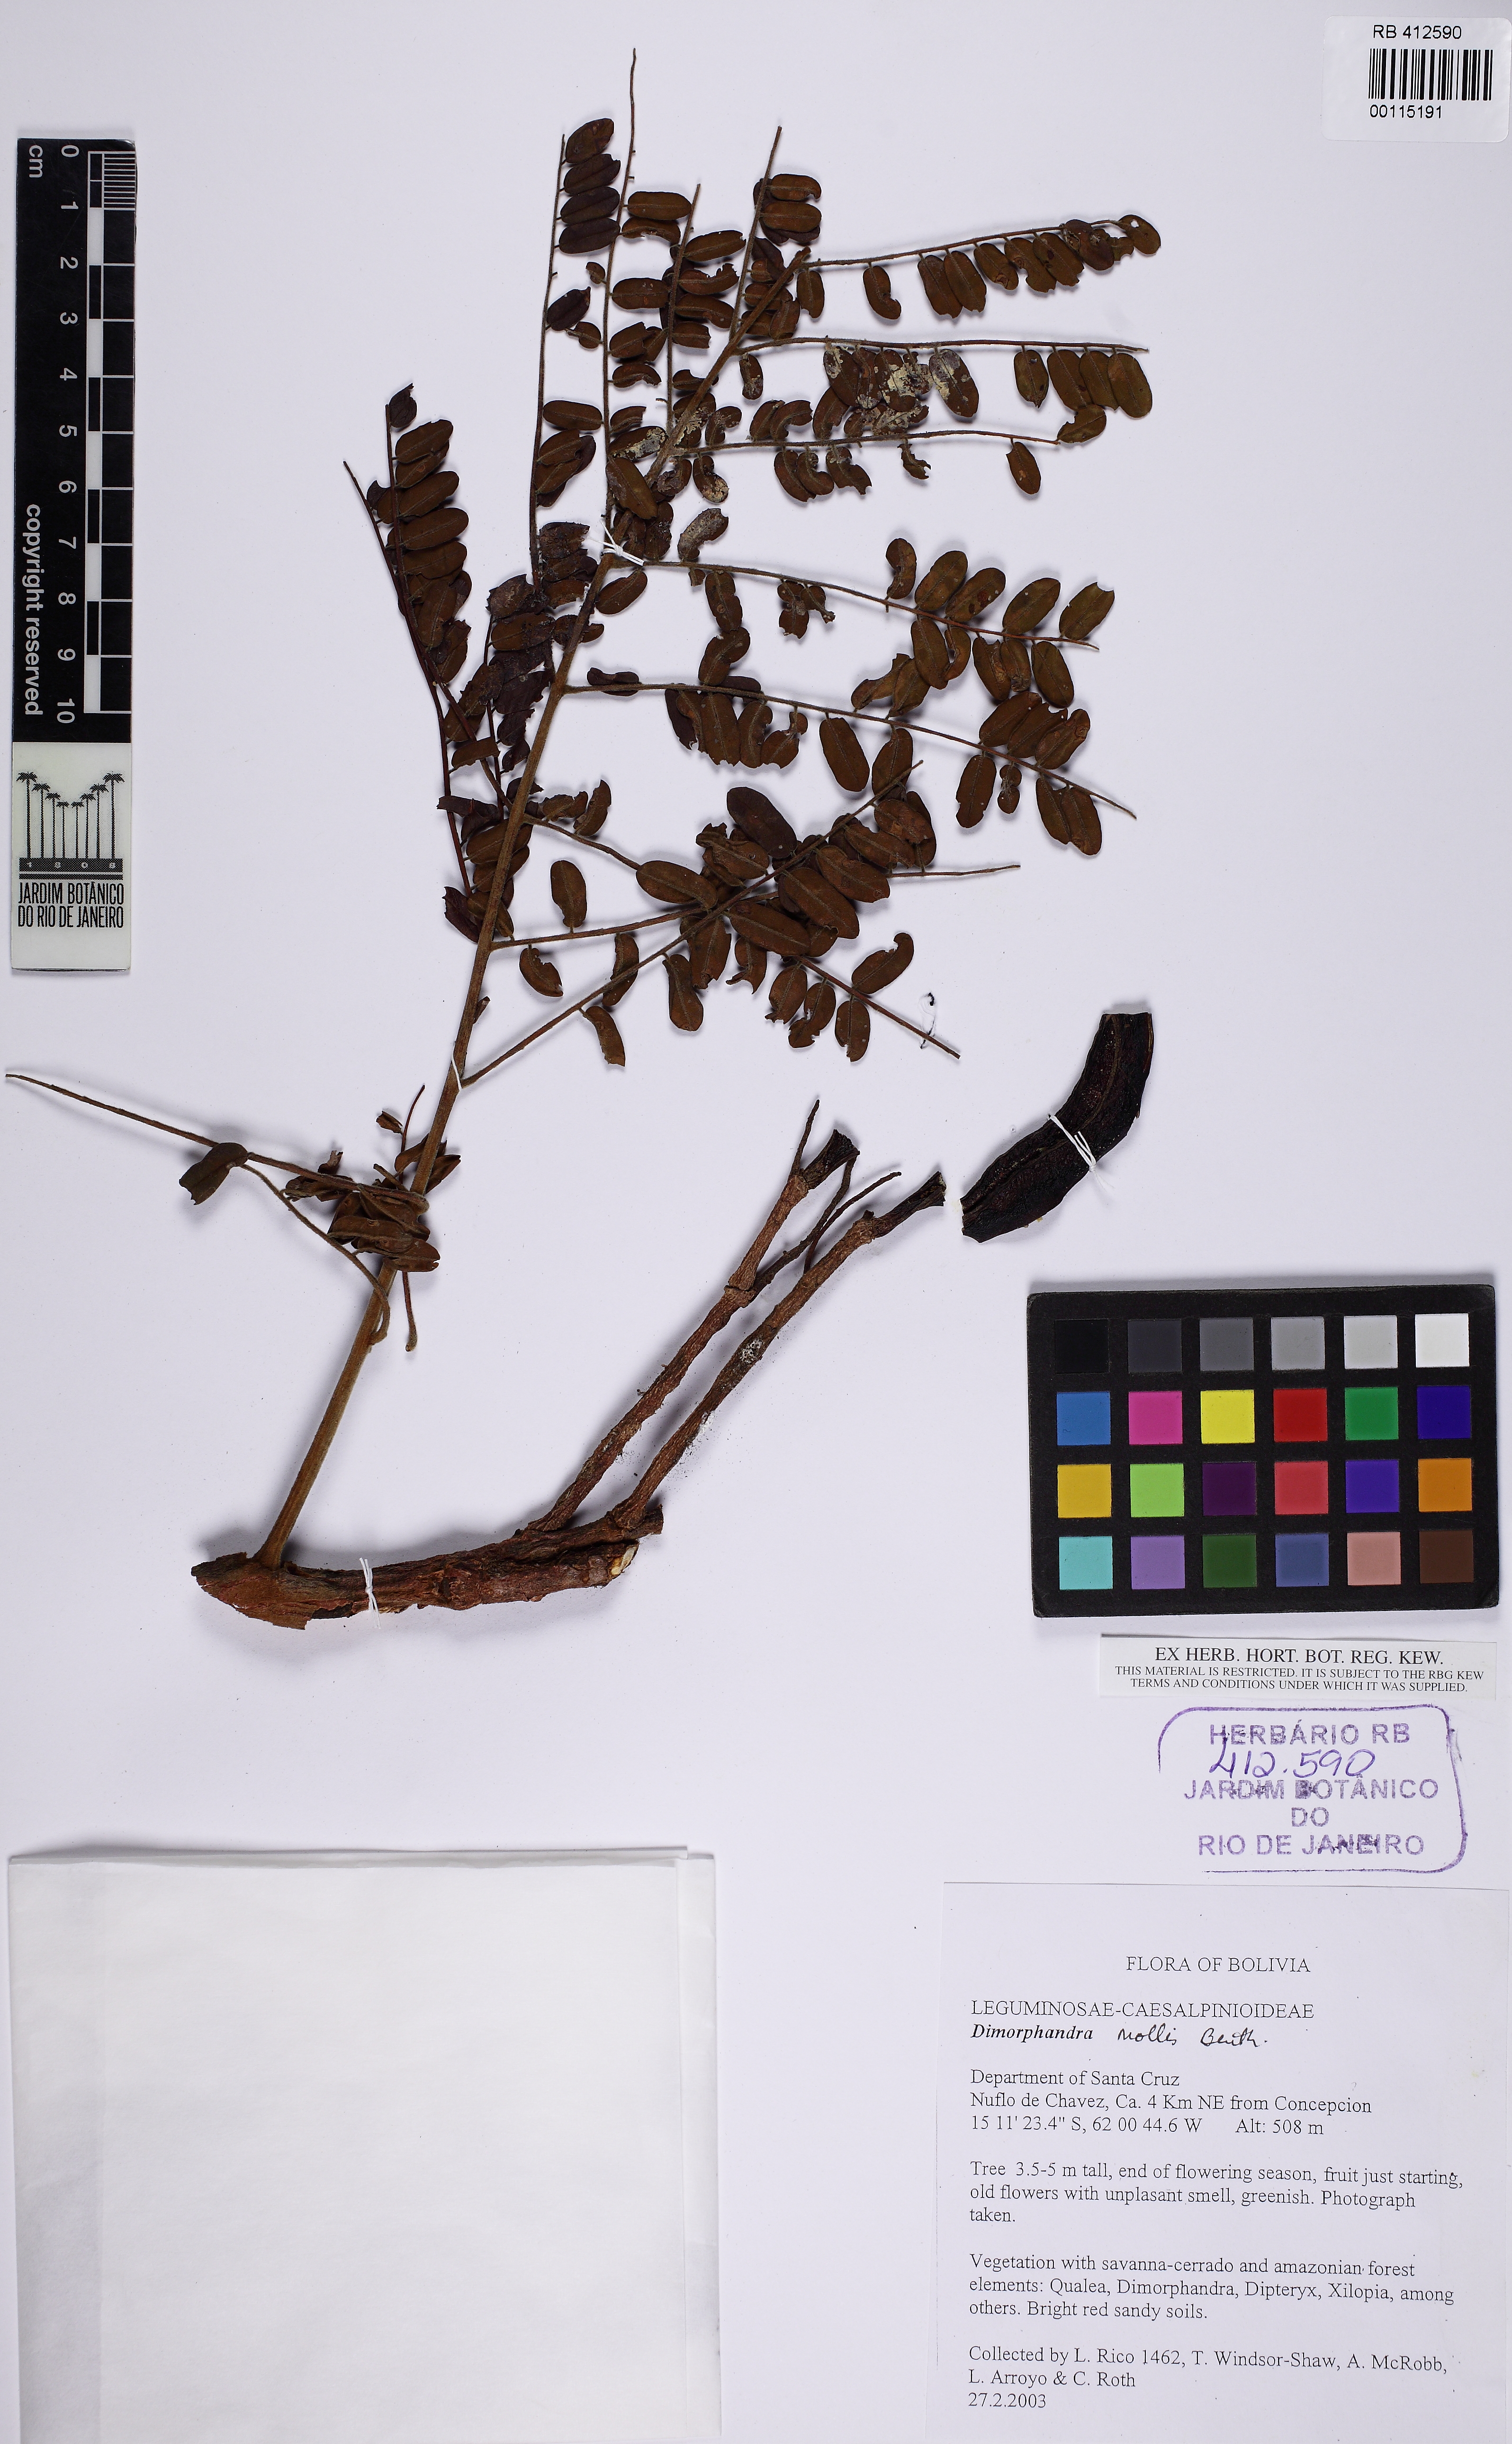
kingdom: Plantae
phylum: Tracheophyta
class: Magnoliopsida
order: Fabales
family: Fabaceae
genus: Dimorphandra
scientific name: Dimorphandra mollis
